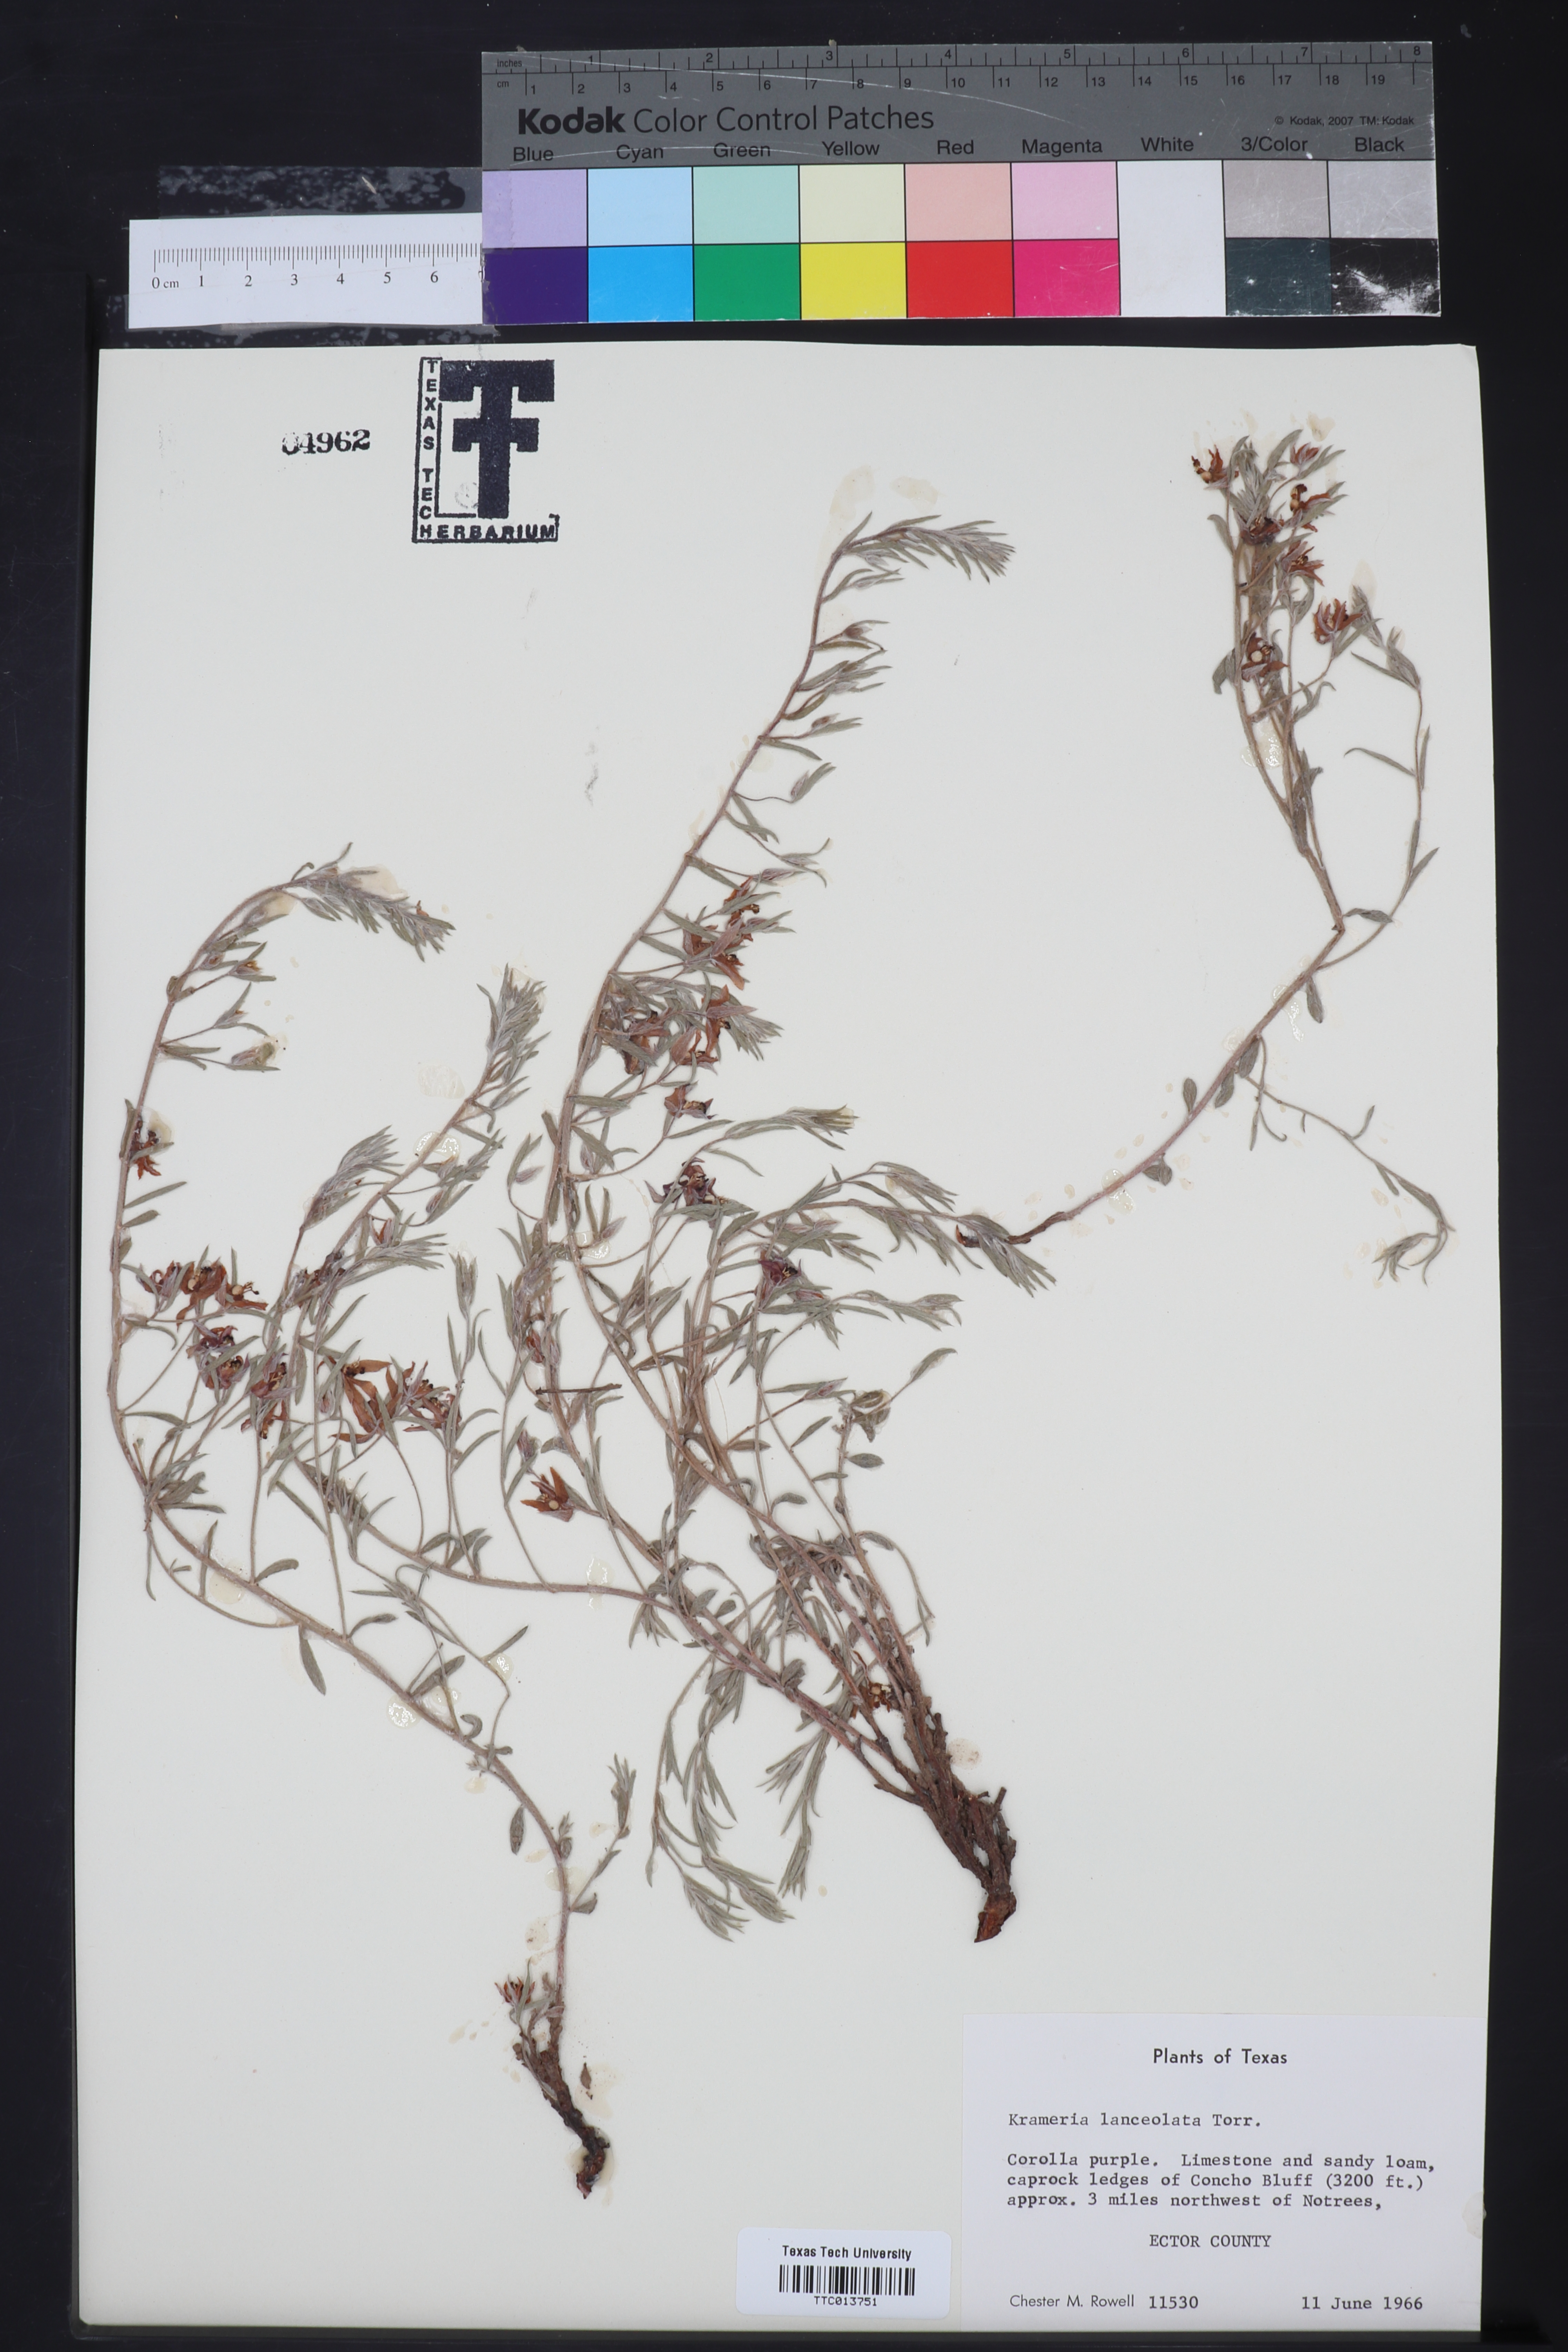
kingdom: Plantae
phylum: Tracheophyta
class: Magnoliopsida
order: Zygophyllales
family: Krameriaceae
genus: Krameria
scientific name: Krameria lanceolata
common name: Ratany
